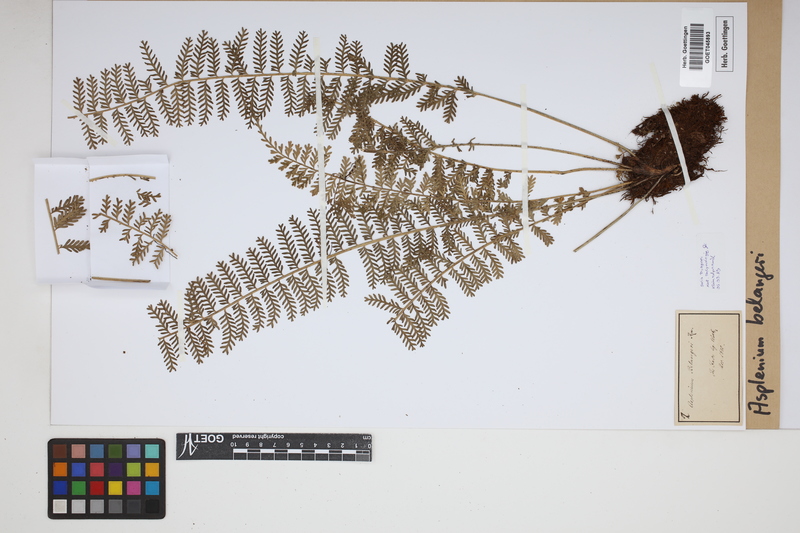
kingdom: Plantae
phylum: Tracheophyta
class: Polypodiopsida
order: Polypodiales
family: Aspleniaceae
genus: Asplenium
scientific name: Asplenium thunbergii
